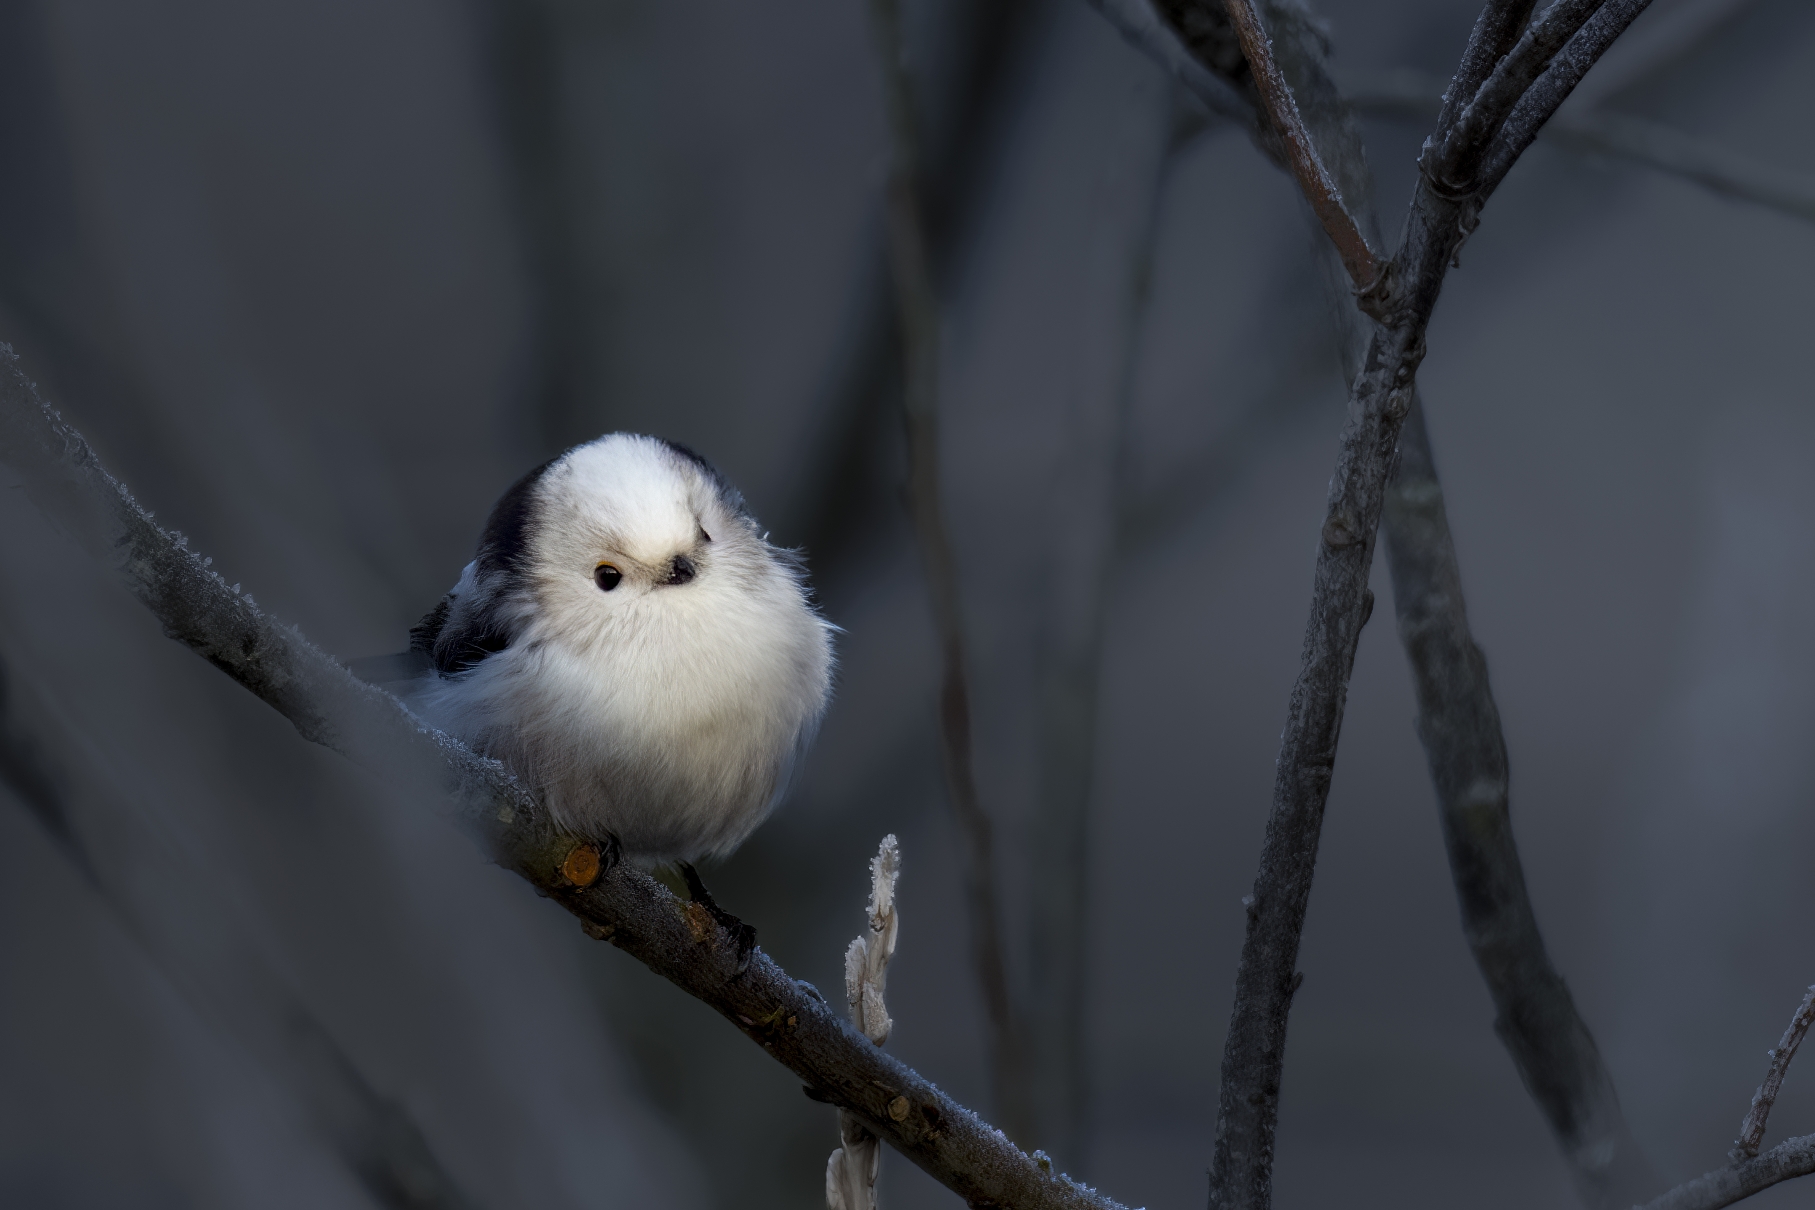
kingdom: Animalia
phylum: Chordata
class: Aves
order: Passeriformes
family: Aegithalidae
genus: Aegithalos
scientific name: Aegithalos caudatus
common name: Halemejse
